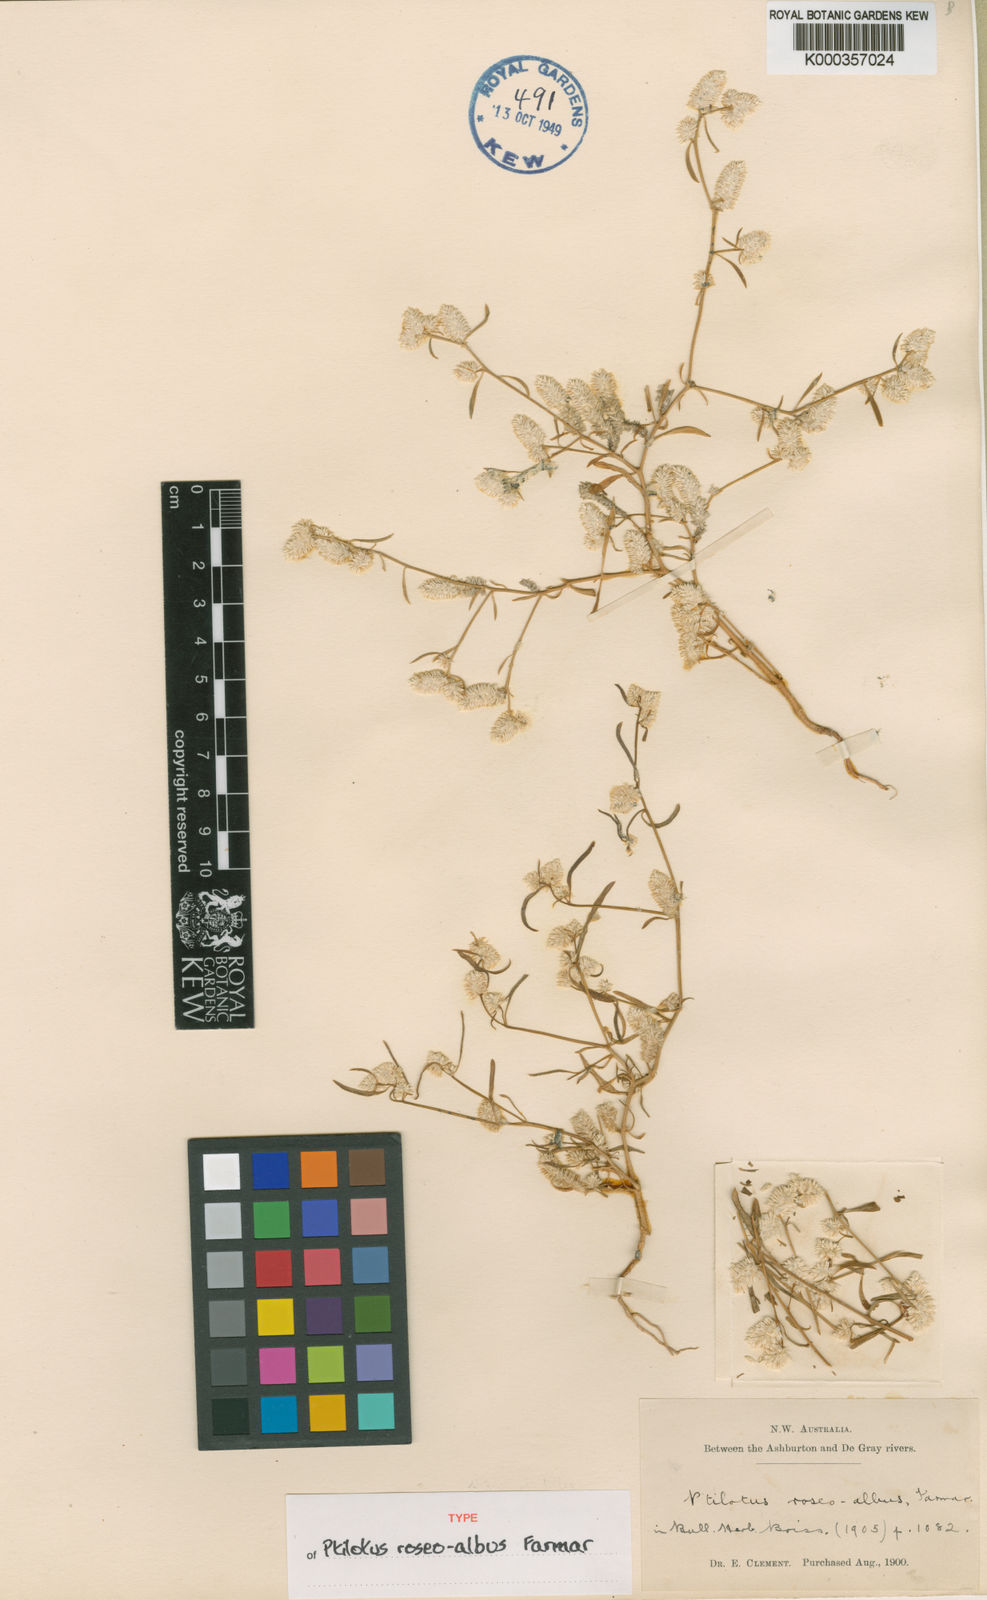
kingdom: Plantae
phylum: Tracheophyta
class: Magnoliopsida
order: Caryophyllales
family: Amaranthaceae
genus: Ptilotus
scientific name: Ptilotus
